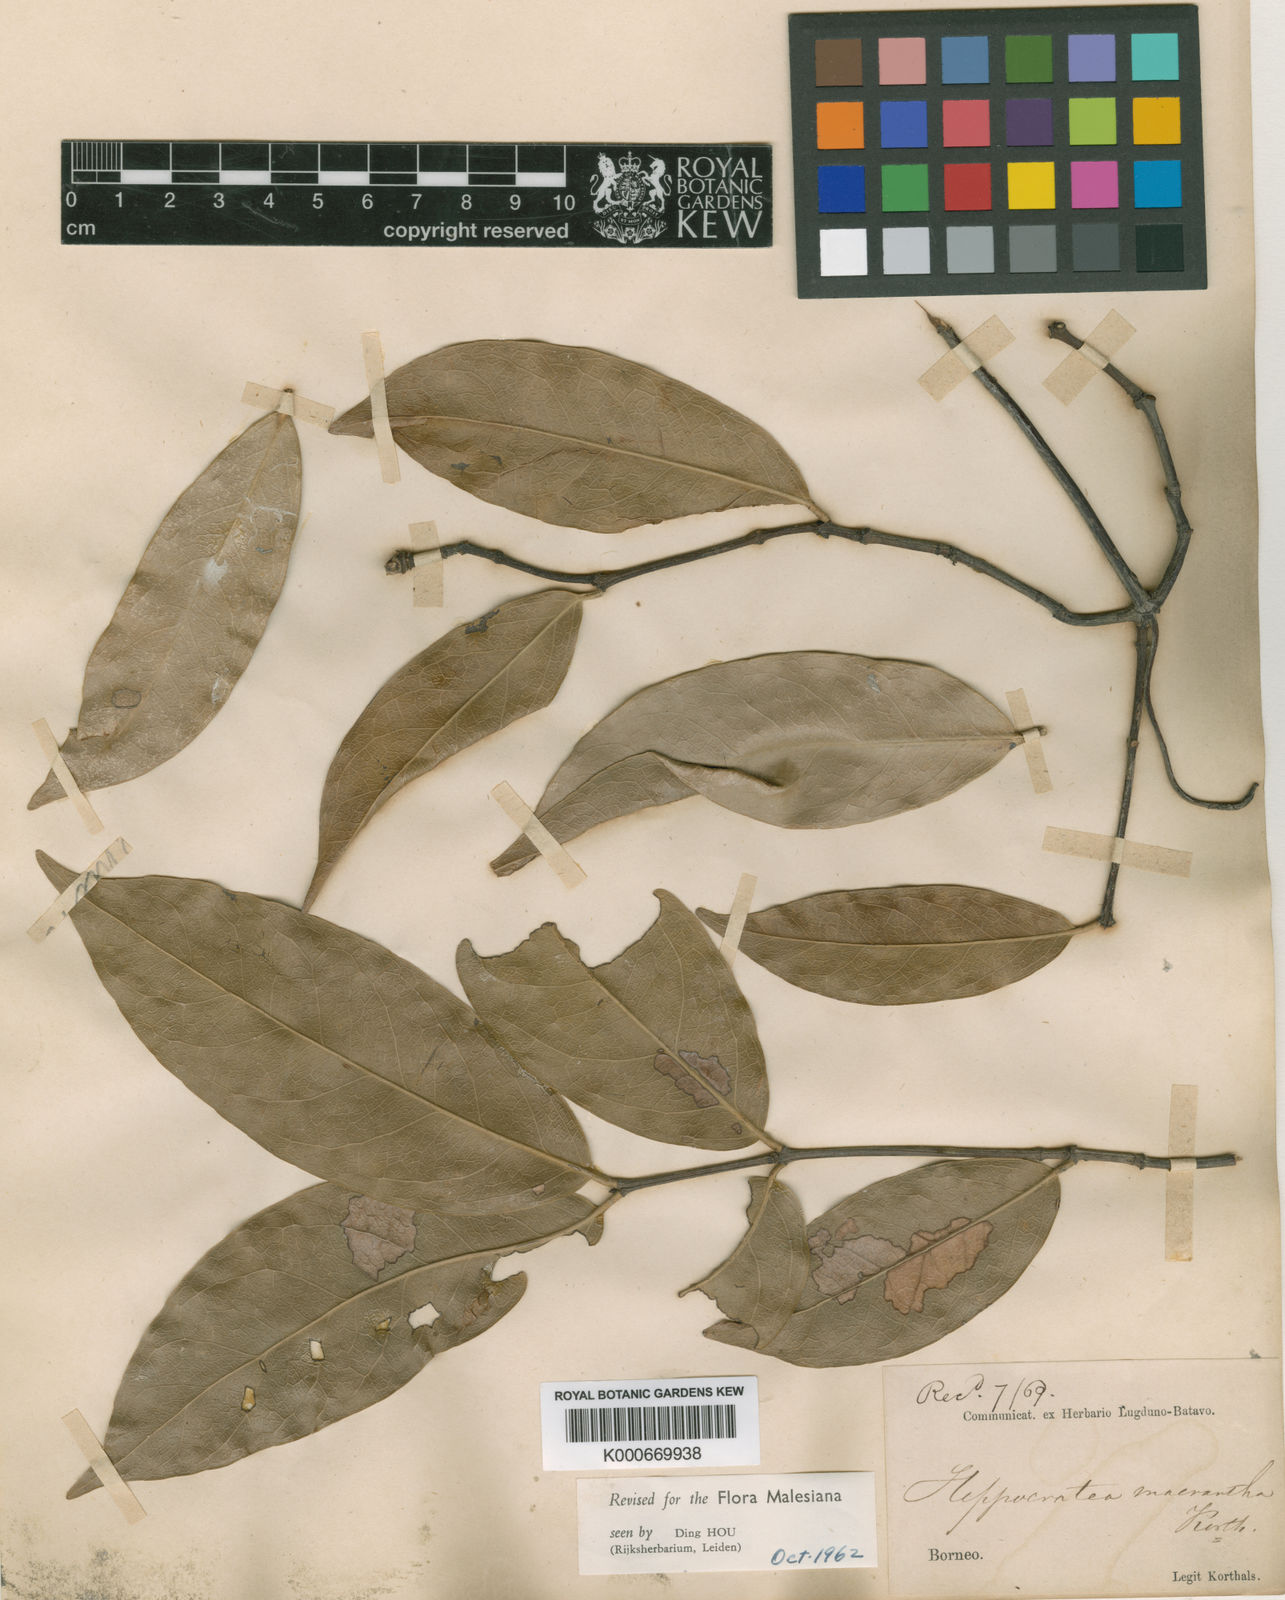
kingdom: Plantae
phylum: Tracheophyta
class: Magnoliopsida
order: Celastrales
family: Celastraceae
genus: Loeseneriella
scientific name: Loeseneriella macrantha
